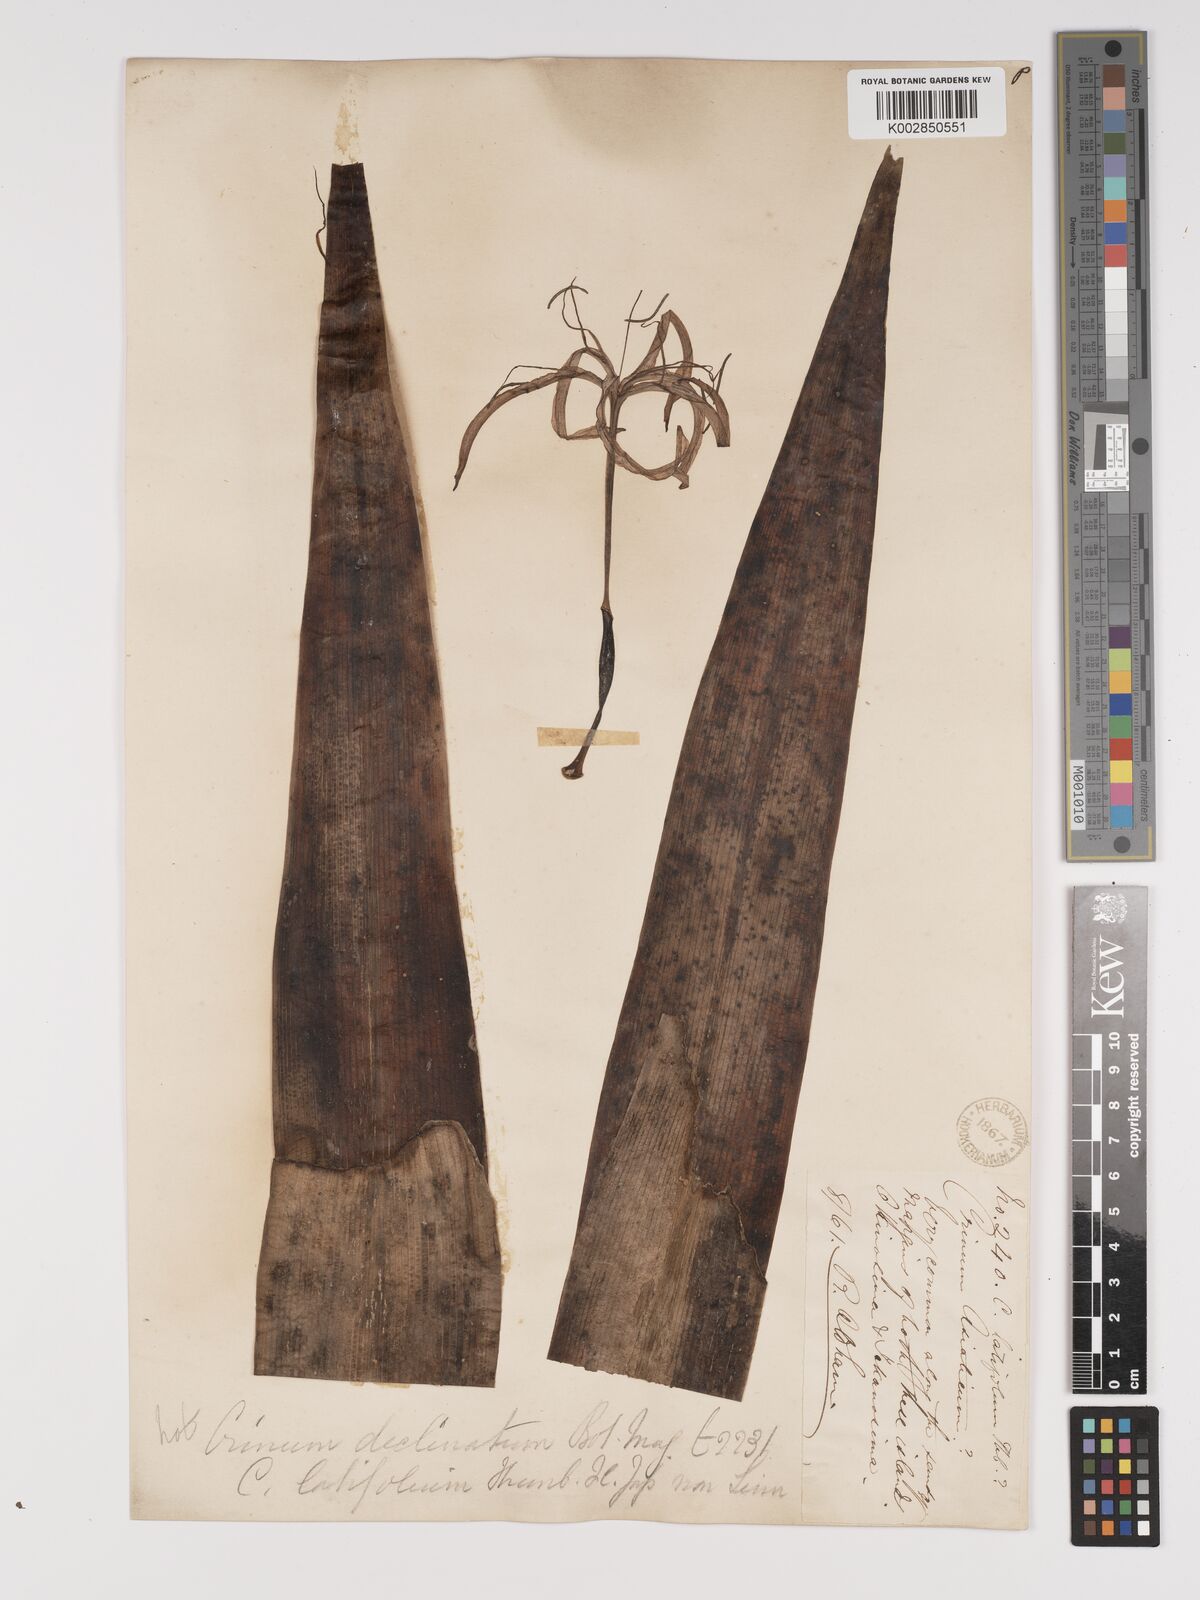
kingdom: Plantae
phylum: Tracheophyta
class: Liliopsida
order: Asparagales
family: Amaryllidaceae
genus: Crinum
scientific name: Crinum asiaticum
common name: Poisonbulb
